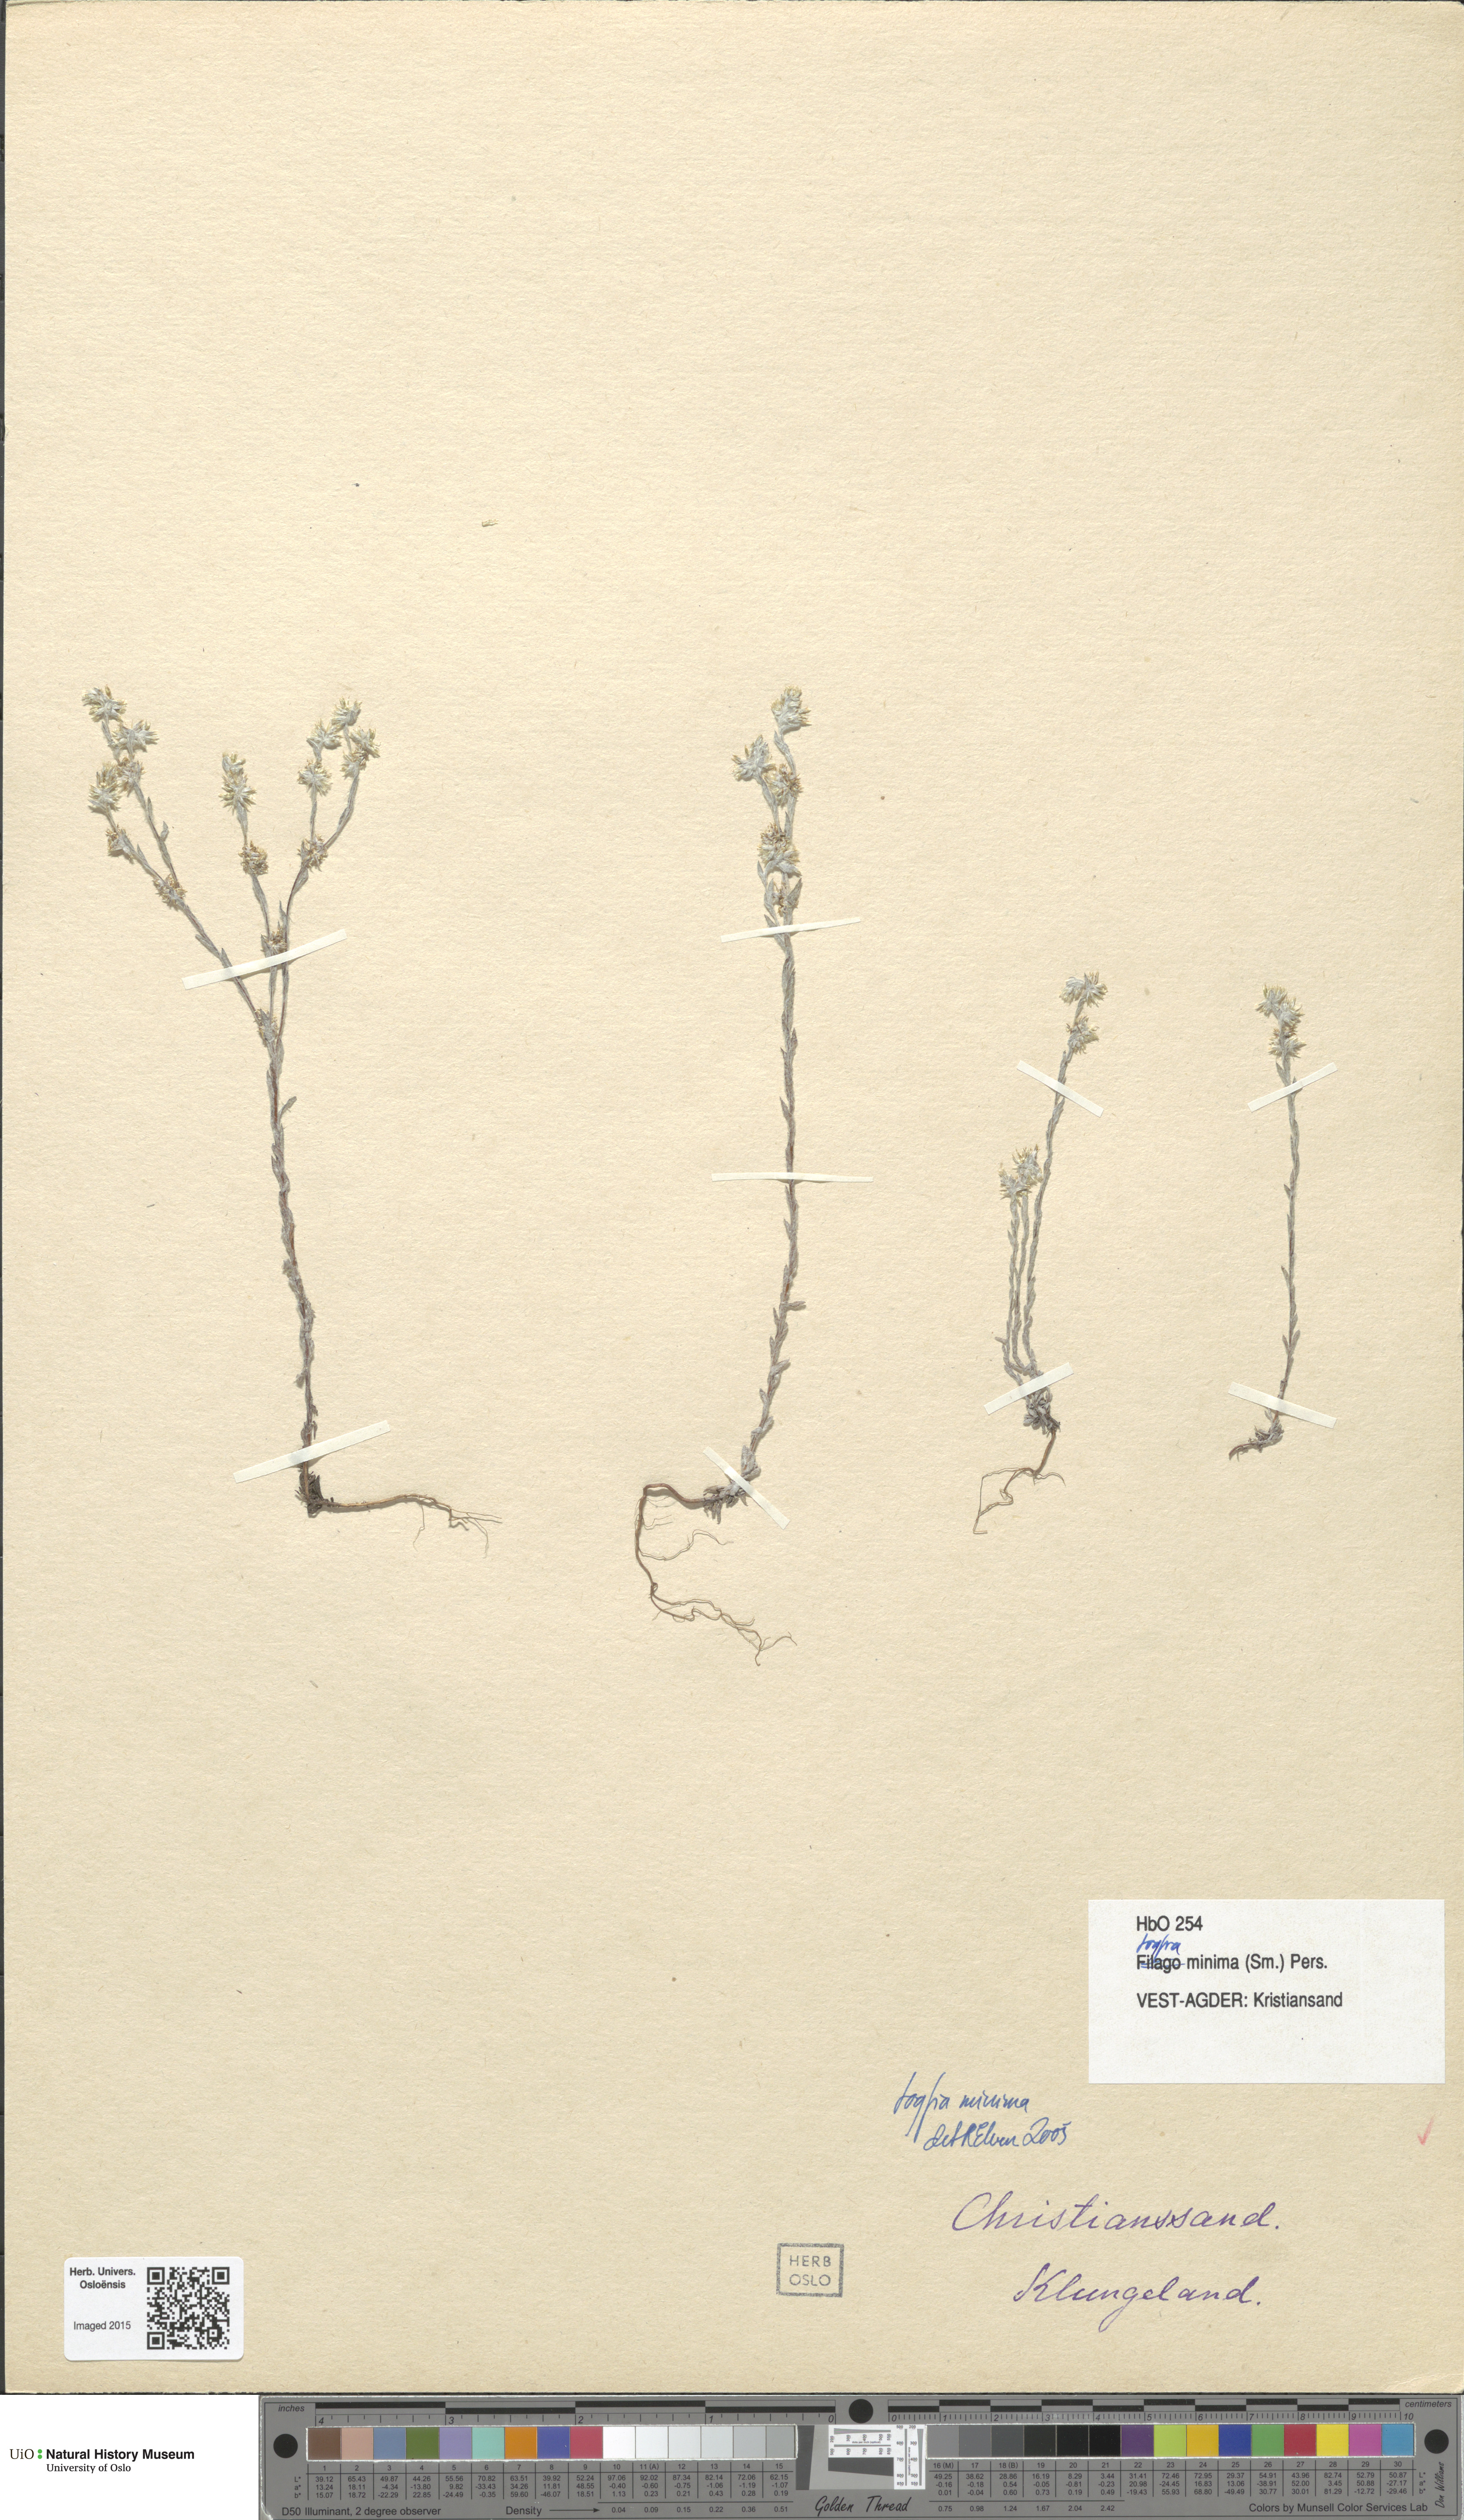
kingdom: Plantae
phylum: Tracheophyta
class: Magnoliopsida
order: Asterales
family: Asteraceae
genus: Logfia
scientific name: Logfia minima
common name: Little cottonrose
